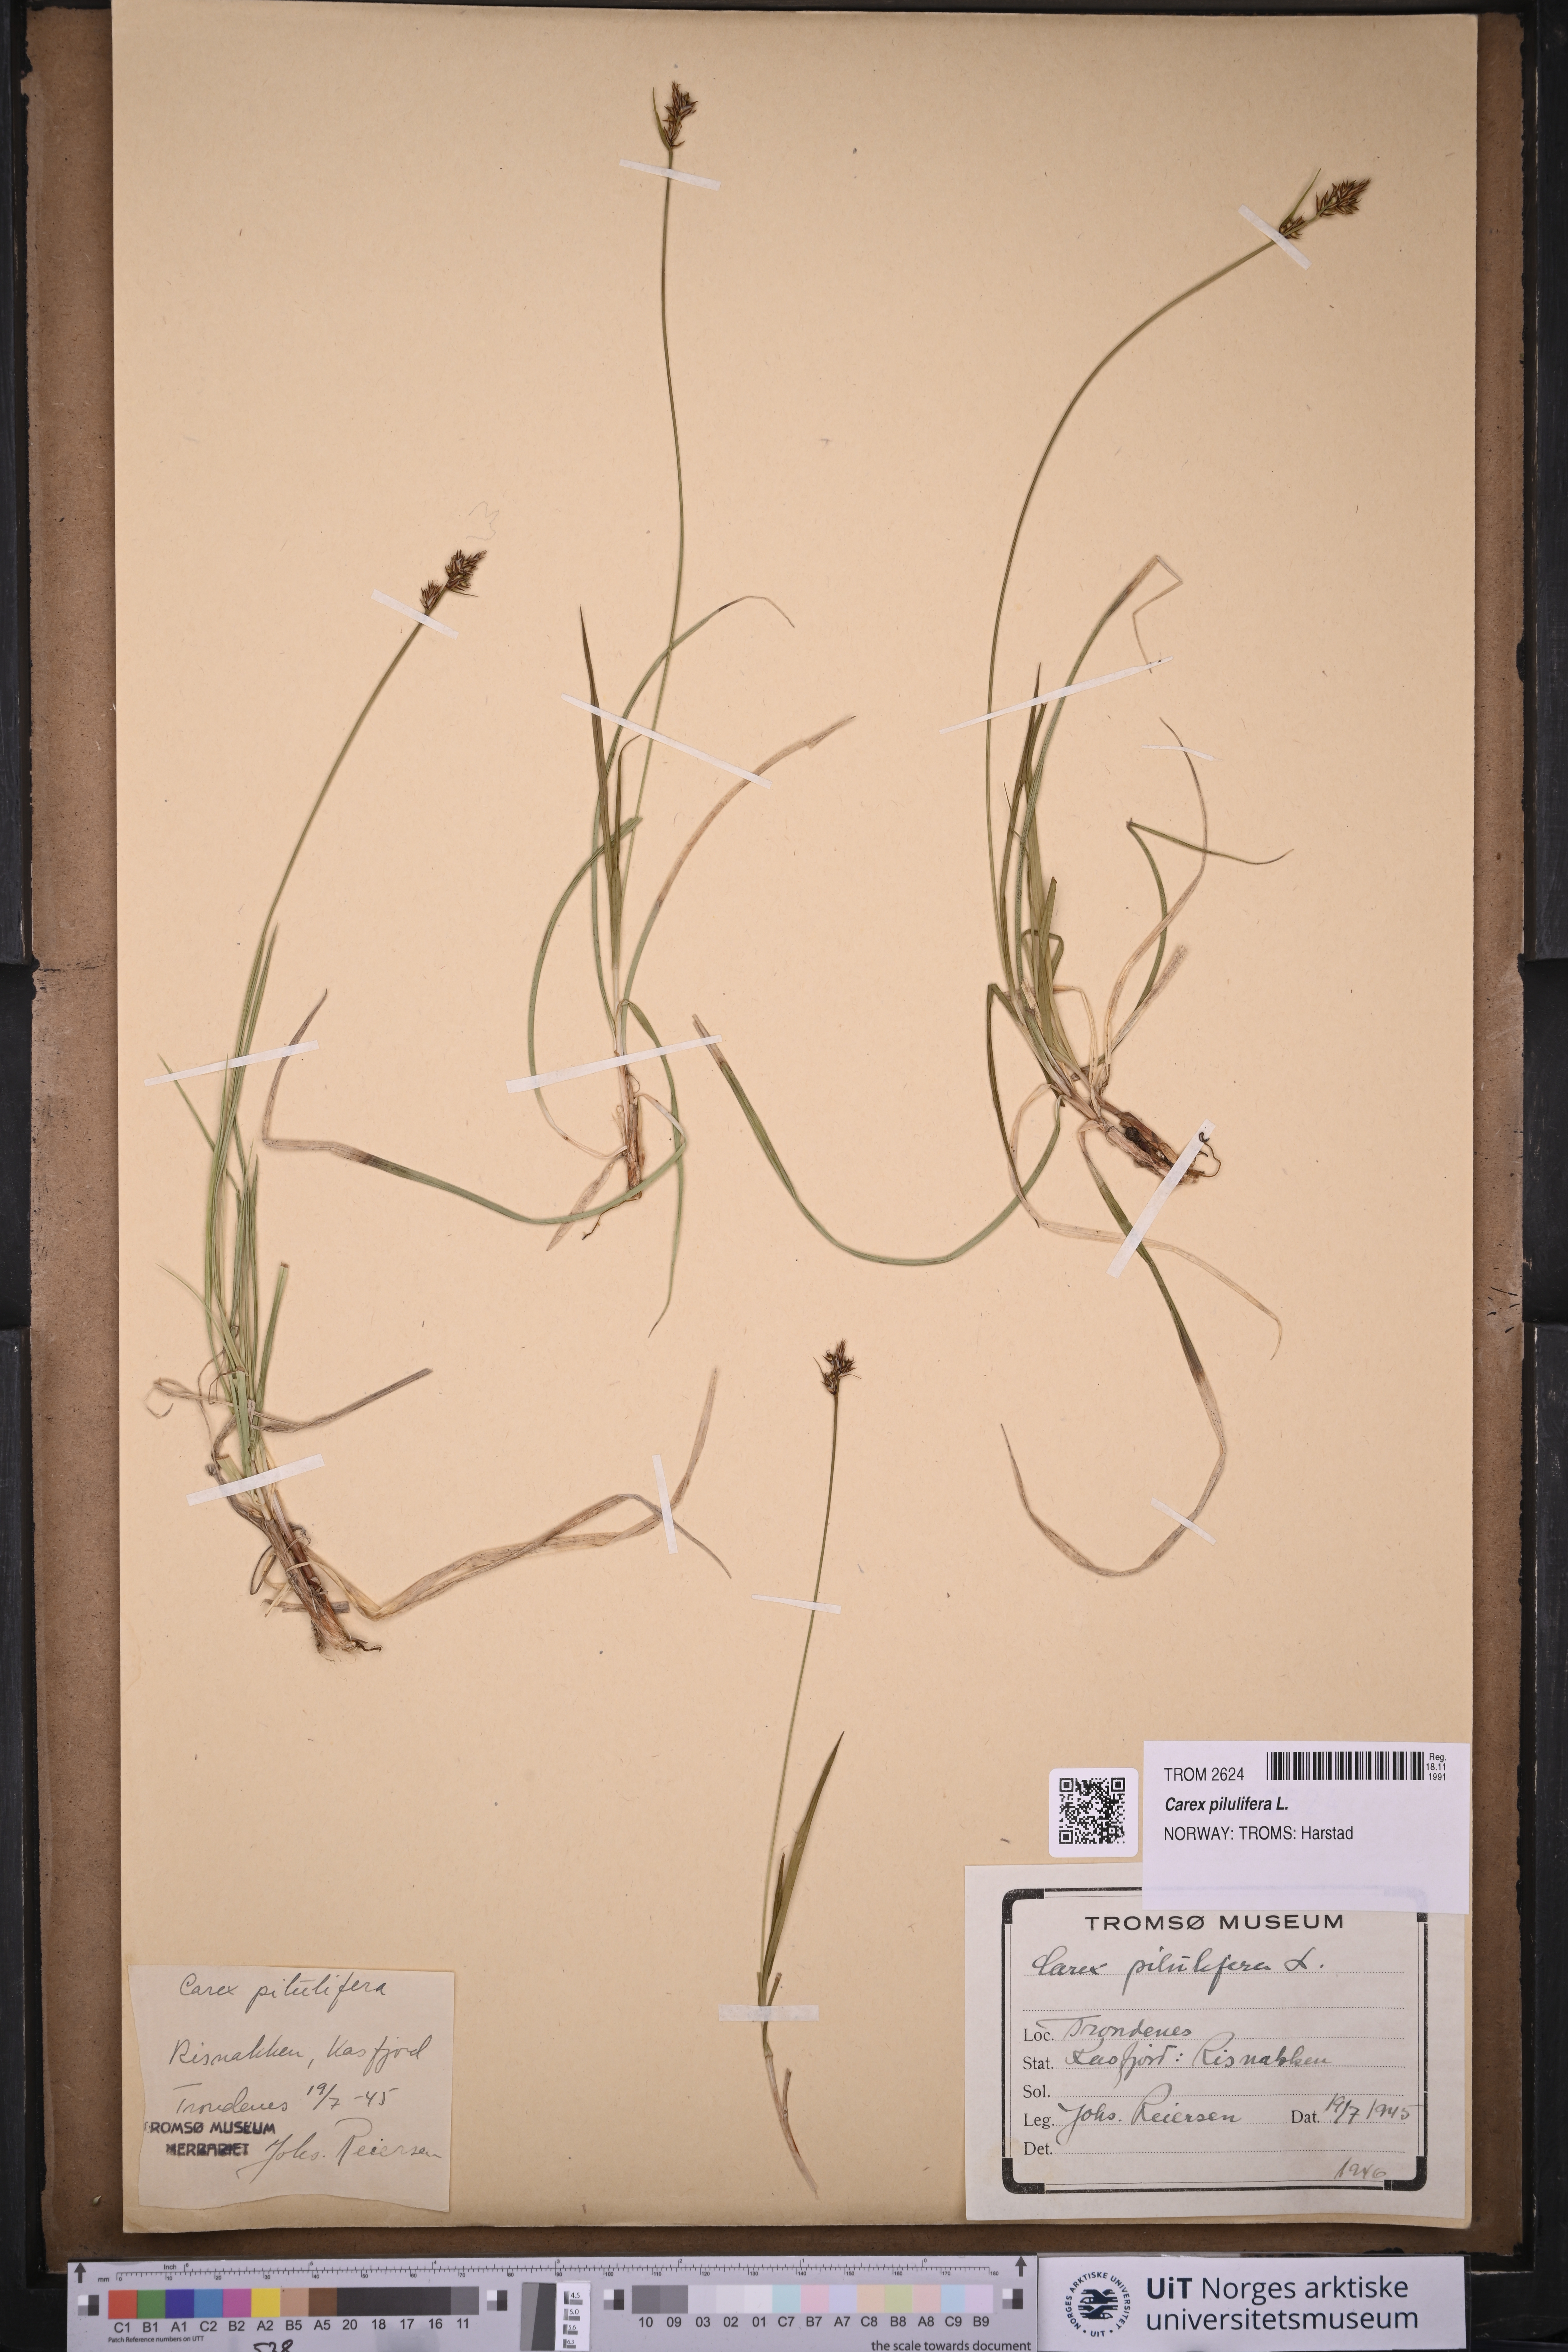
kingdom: Plantae
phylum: Tracheophyta
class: Liliopsida
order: Poales
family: Cyperaceae
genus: Carex
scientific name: Carex pilulifera
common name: Pill sedge
